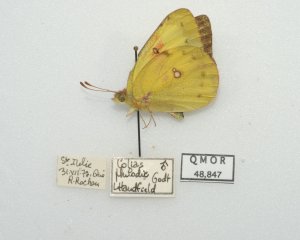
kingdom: Animalia
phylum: Arthropoda
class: Insecta
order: Lepidoptera
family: Pieridae
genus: Colias
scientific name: Colias philodice
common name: Clouded Sulphur
